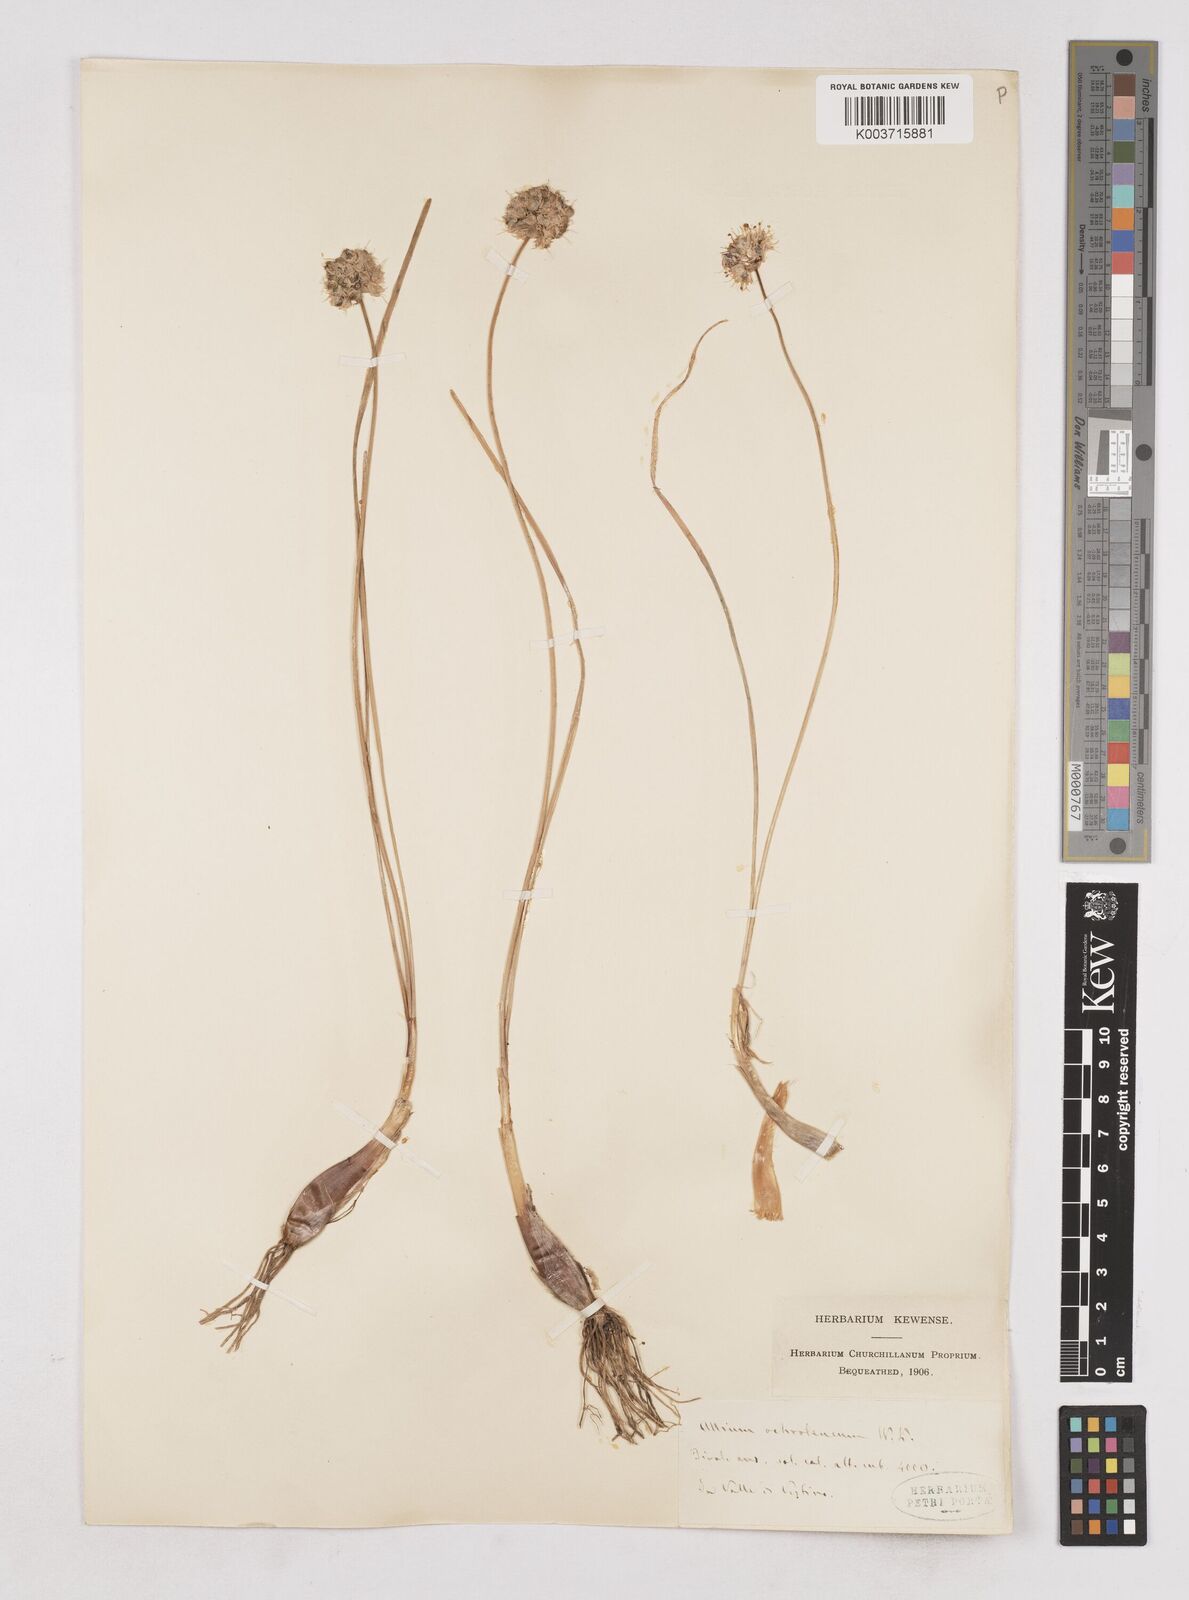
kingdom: Plantae
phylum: Tracheophyta
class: Liliopsida
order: Asparagales
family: Amaryllidaceae
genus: Allium
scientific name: Allium ericetorum
